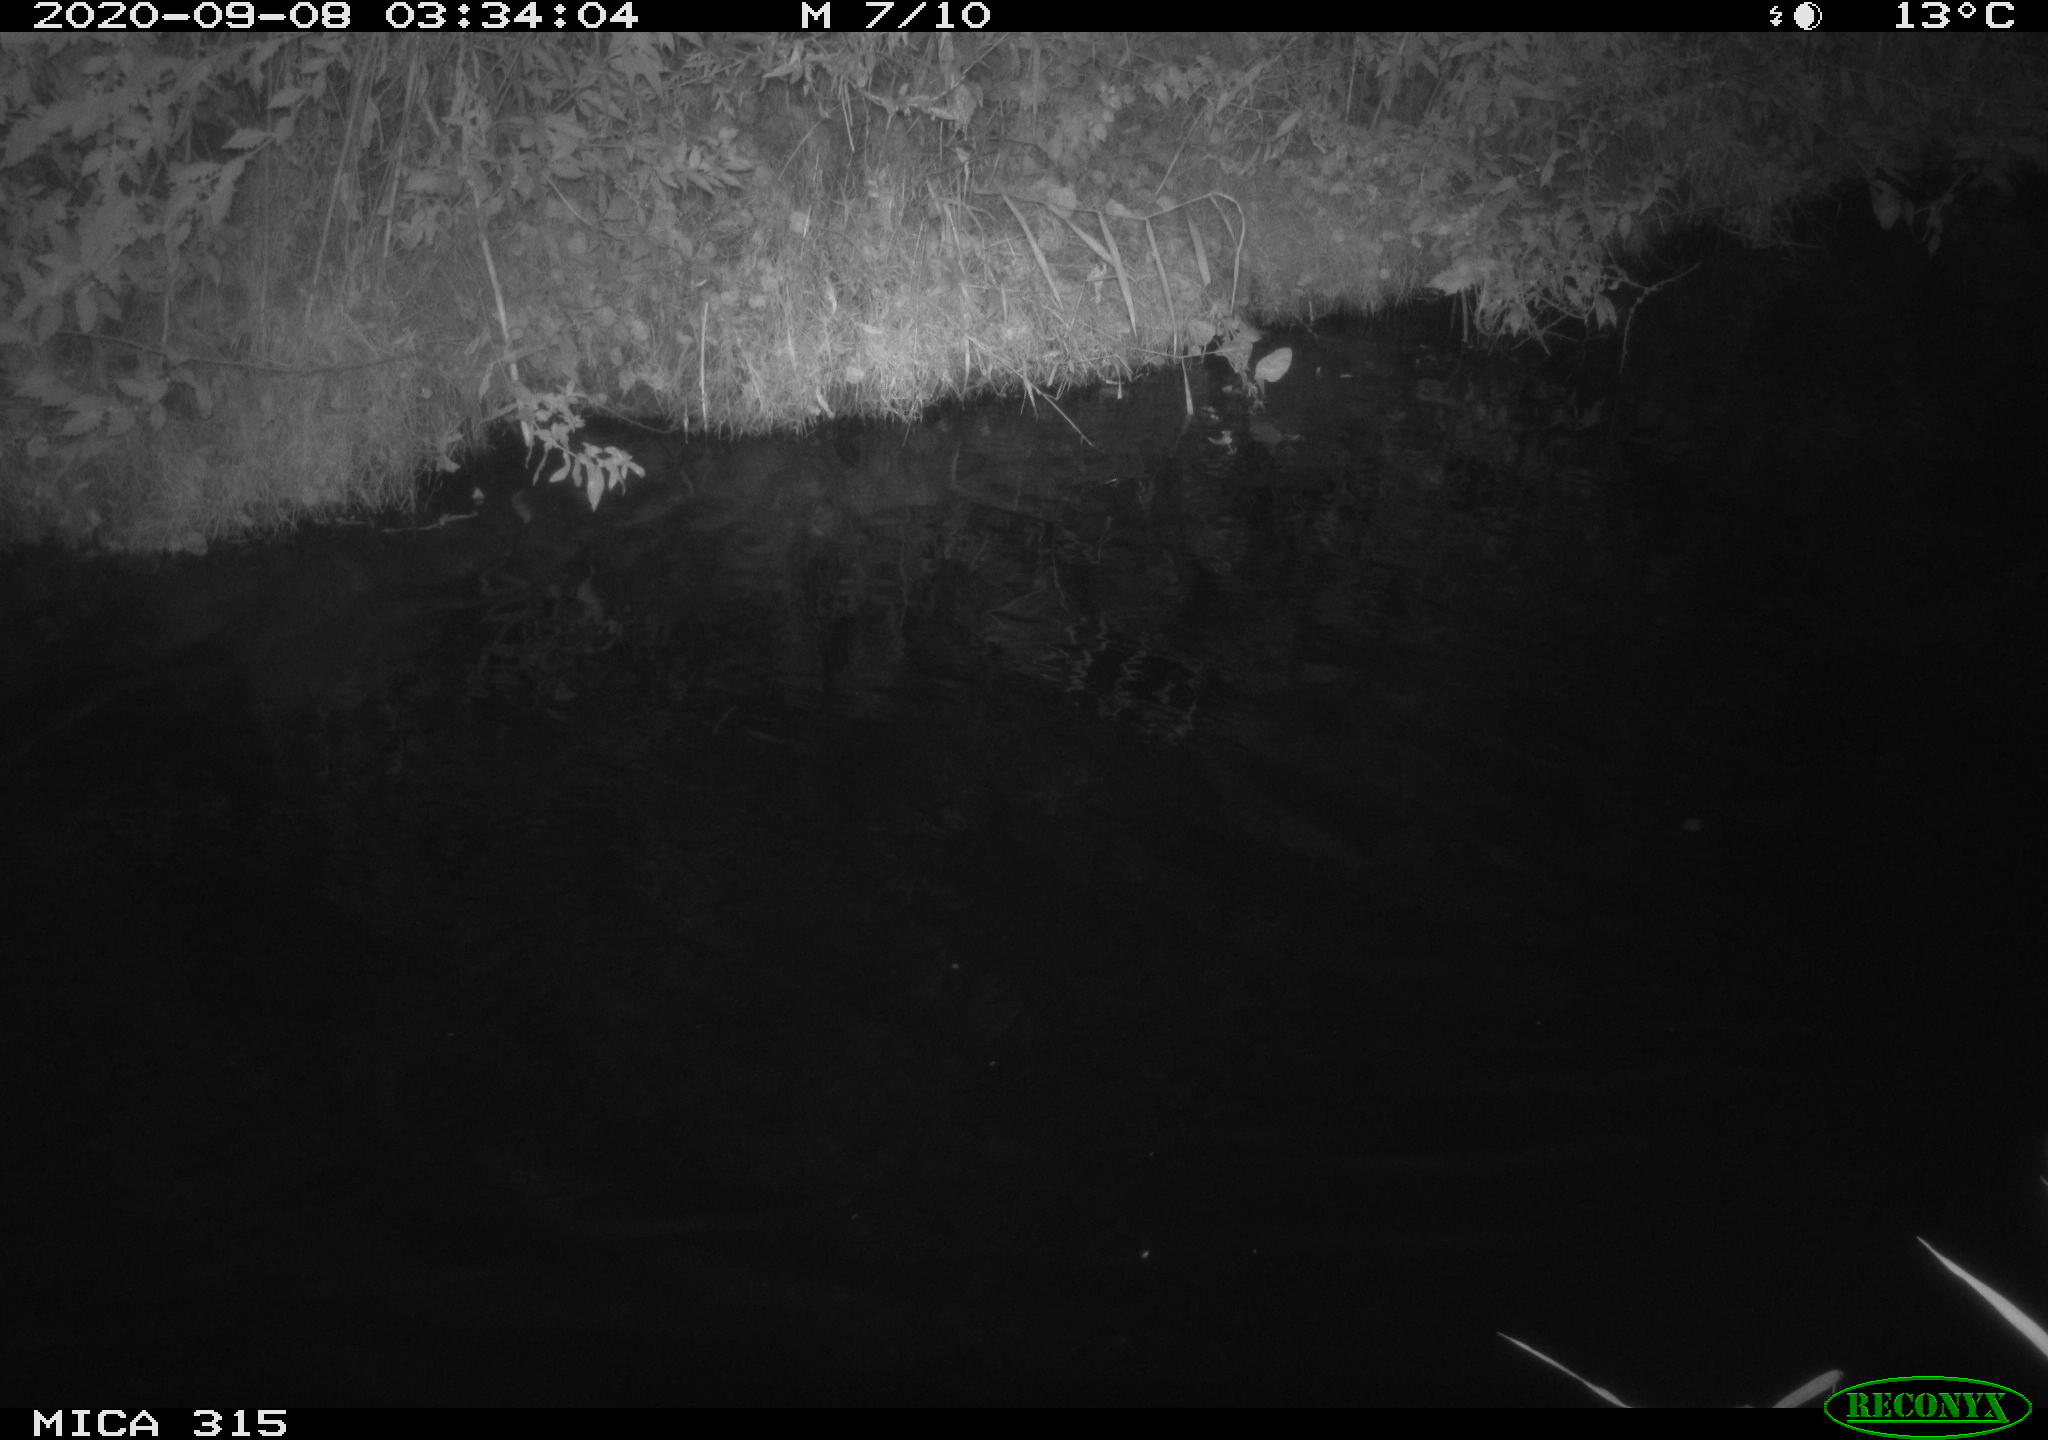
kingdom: Animalia
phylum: Chordata
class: Aves
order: Anseriformes
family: Anatidae
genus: Anas
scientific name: Anas platyrhynchos
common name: Mallard
